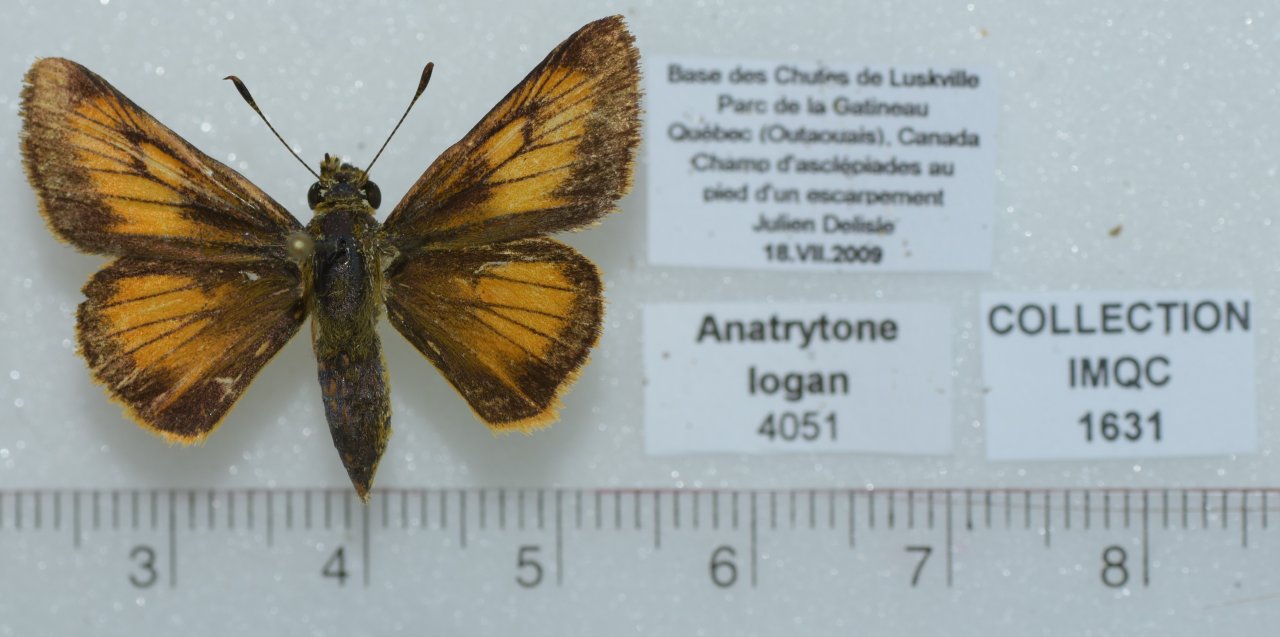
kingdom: Animalia
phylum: Arthropoda
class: Insecta
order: Lepidoptera
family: Hesperiidae
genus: Atrytone
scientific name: Atrytone delaware
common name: Delaware Skipper
